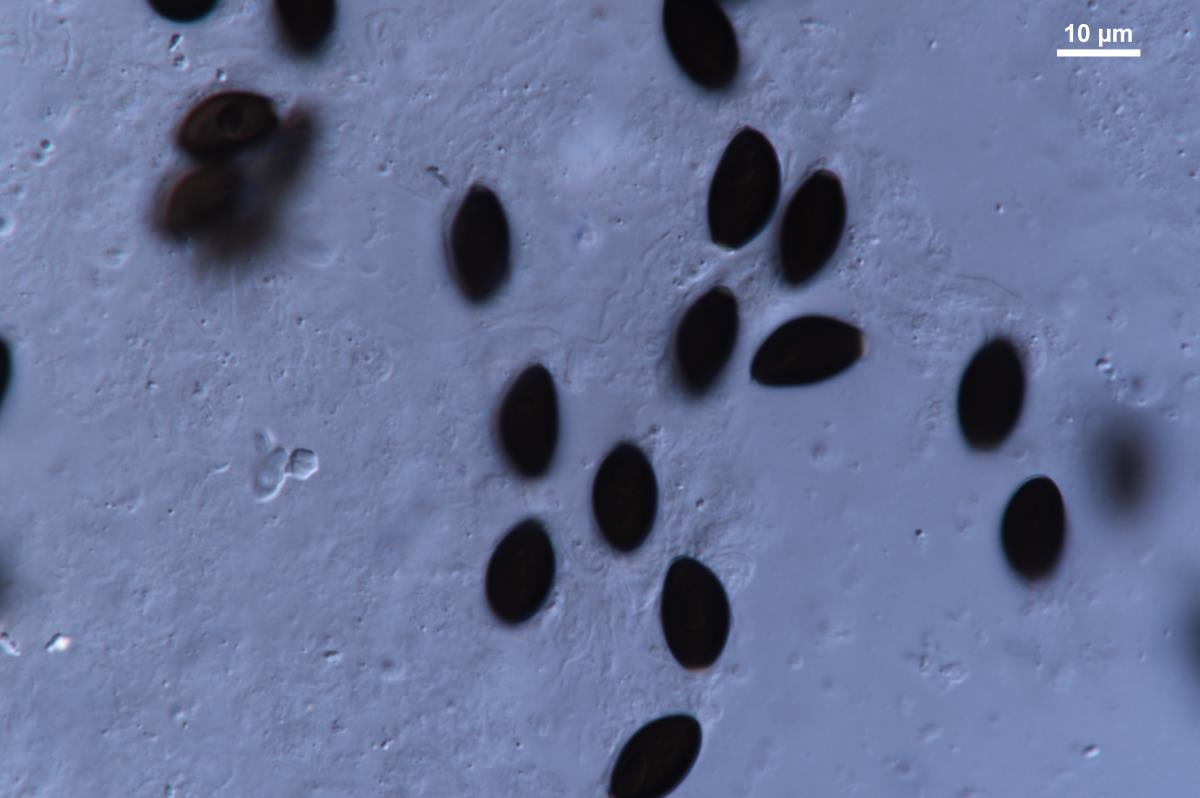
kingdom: Fungi
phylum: Basidiomycota
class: Agaricomycetes
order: Agaricales
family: Psathyrellaceae
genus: Coprinopsis
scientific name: Coprinopsis macrocephala
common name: Bighead inkcap
